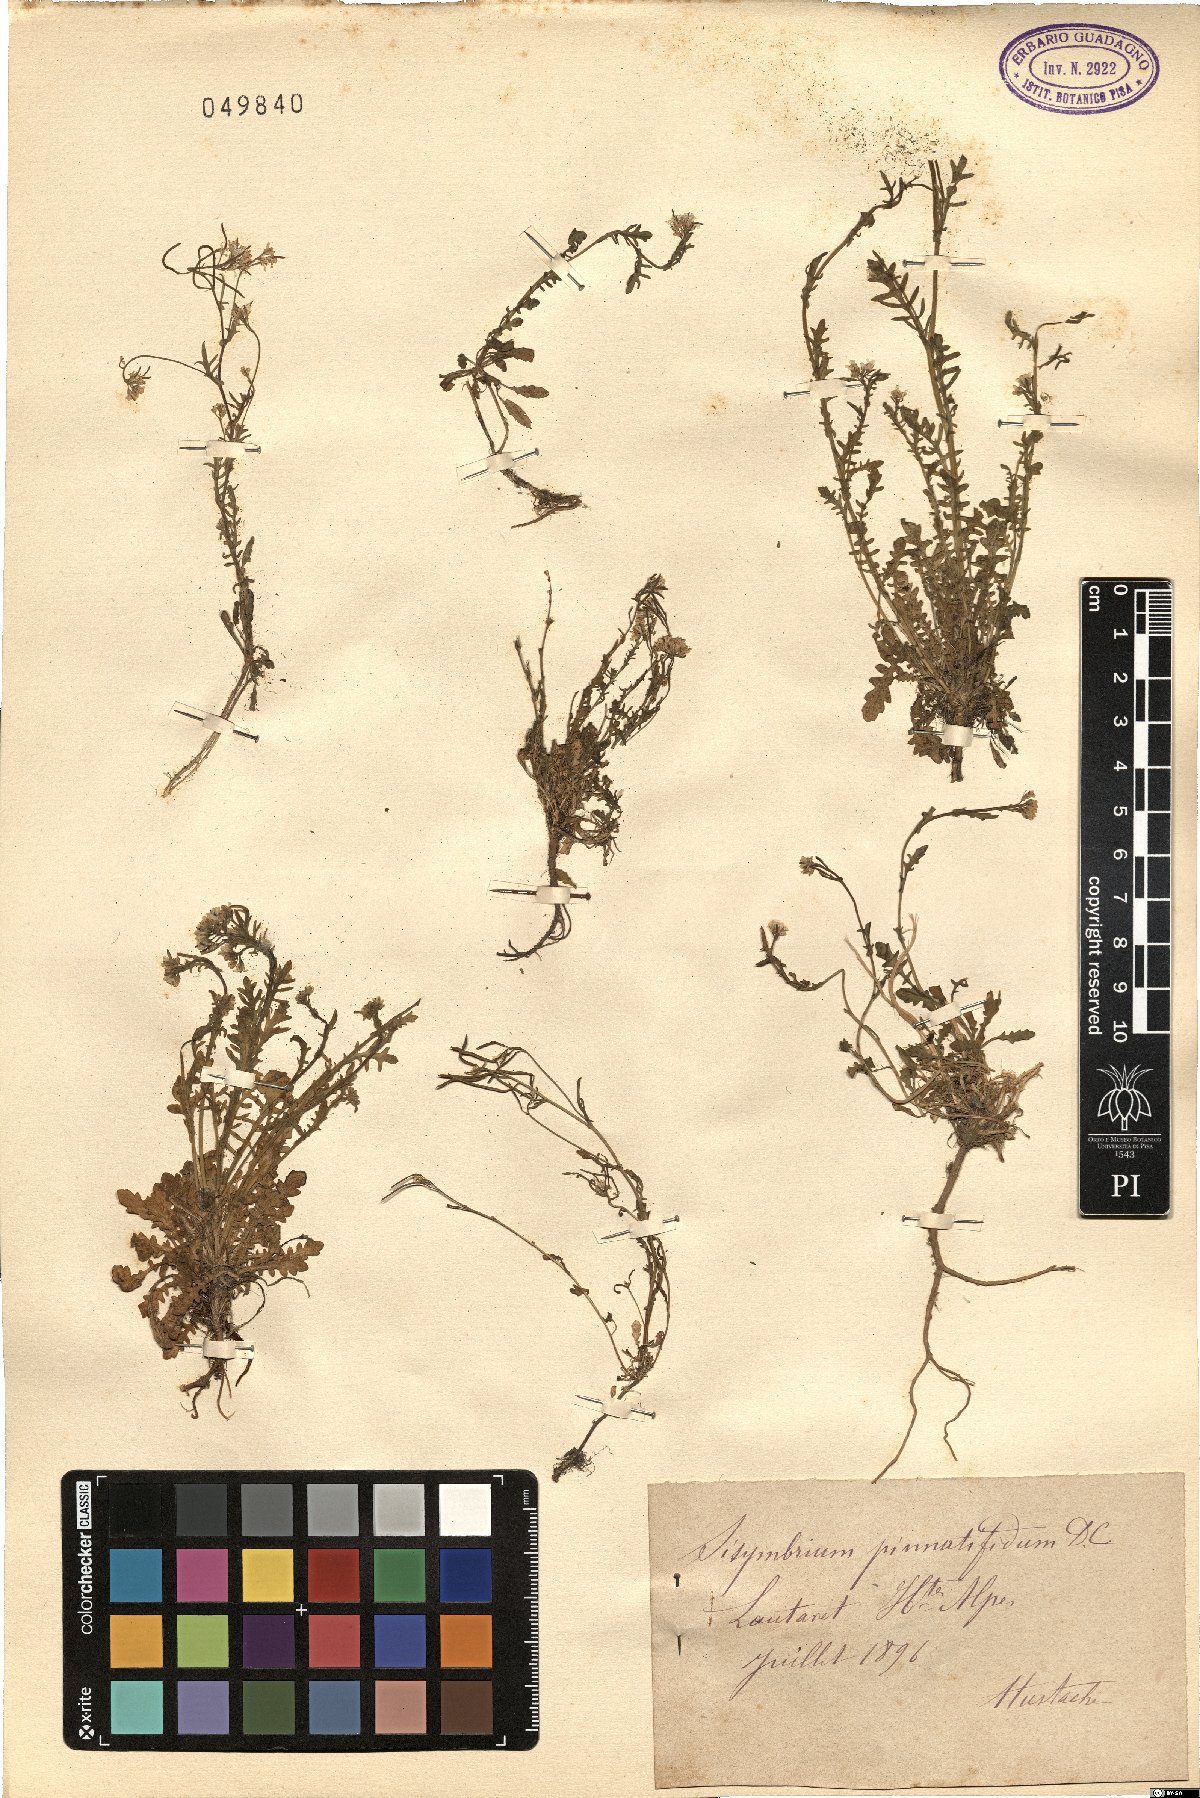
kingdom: Plantae
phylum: Tracheophyta
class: Magnoliopsida
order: Brassicales
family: Brassicaceae
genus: Sisymbrium
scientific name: Sisymbrium irio
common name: London rocket
